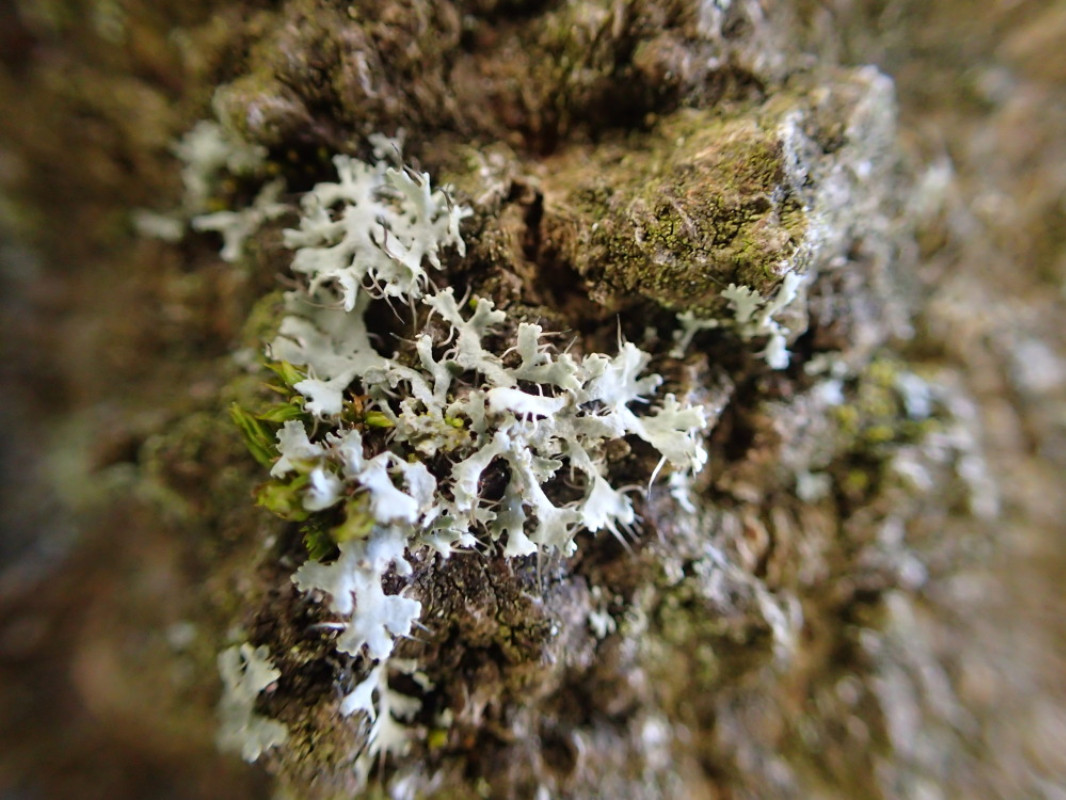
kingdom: Fungi
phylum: Ascomycota
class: Lecanoromycetes
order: Caliciales
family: Physciaceae
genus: Physcia
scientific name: Physcia tenella
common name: spæd rosetlav
